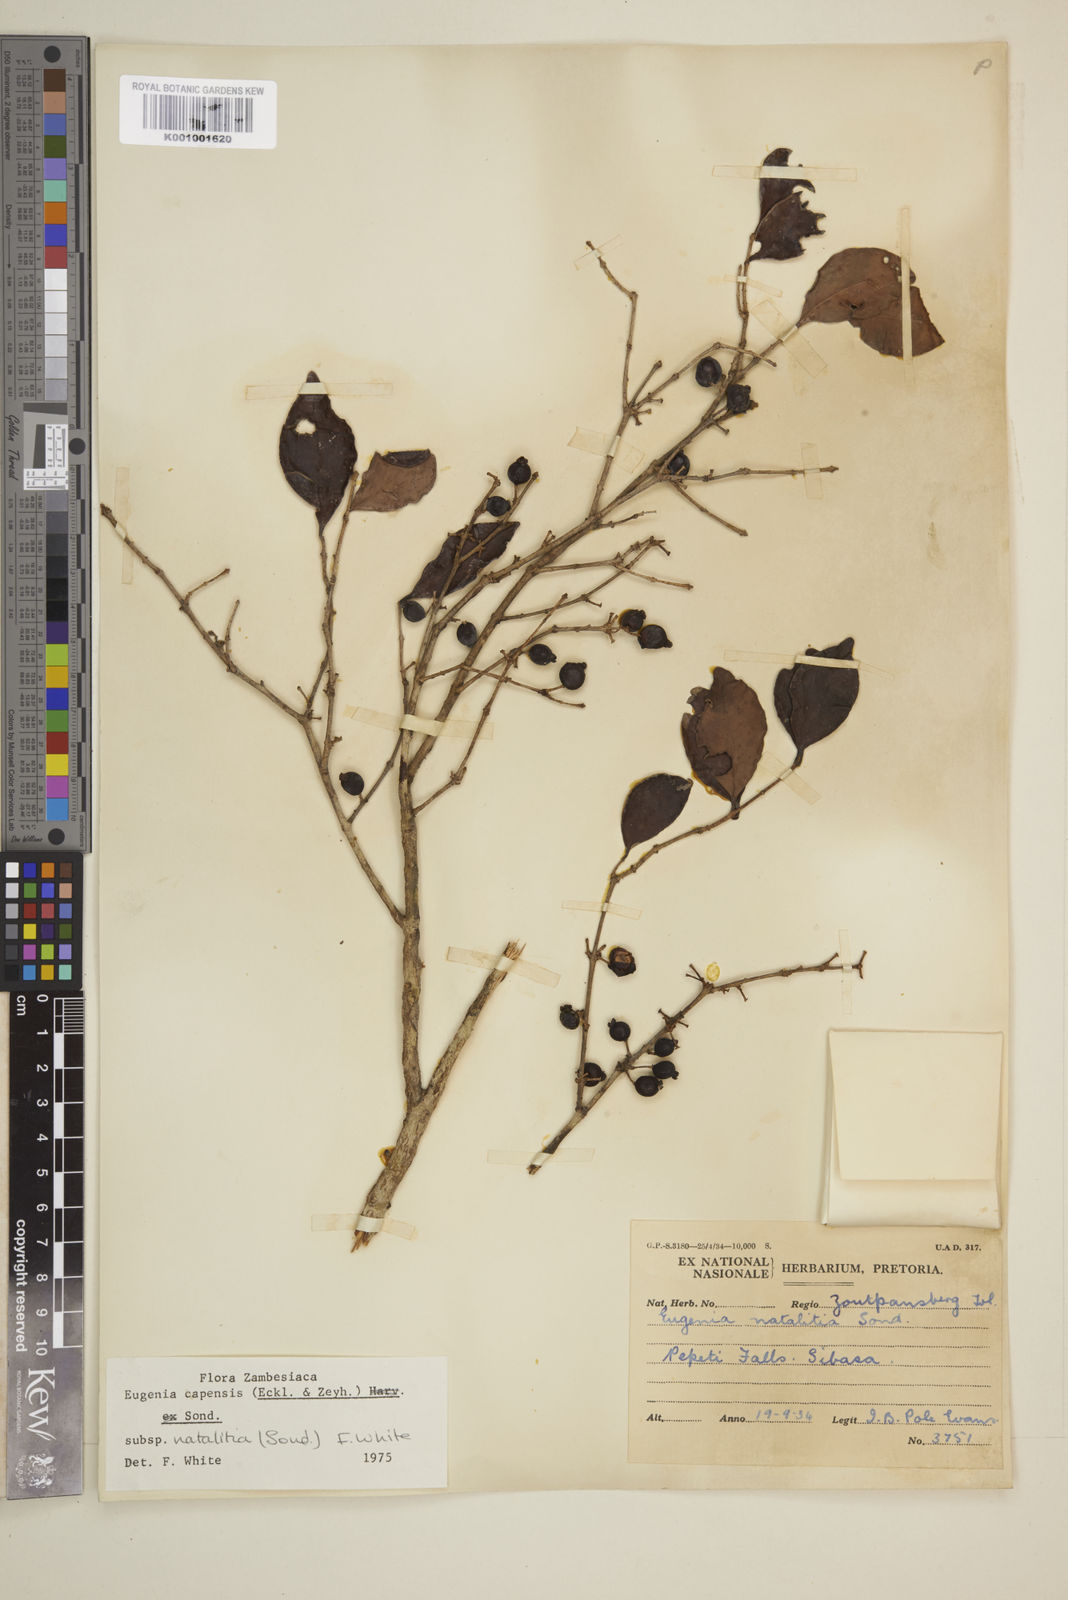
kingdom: Plantae
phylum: Tracheophyta
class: Magnoliopsida
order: Myrtales
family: Myrtaceae
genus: Eugenia
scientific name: Eugenia natalitia
